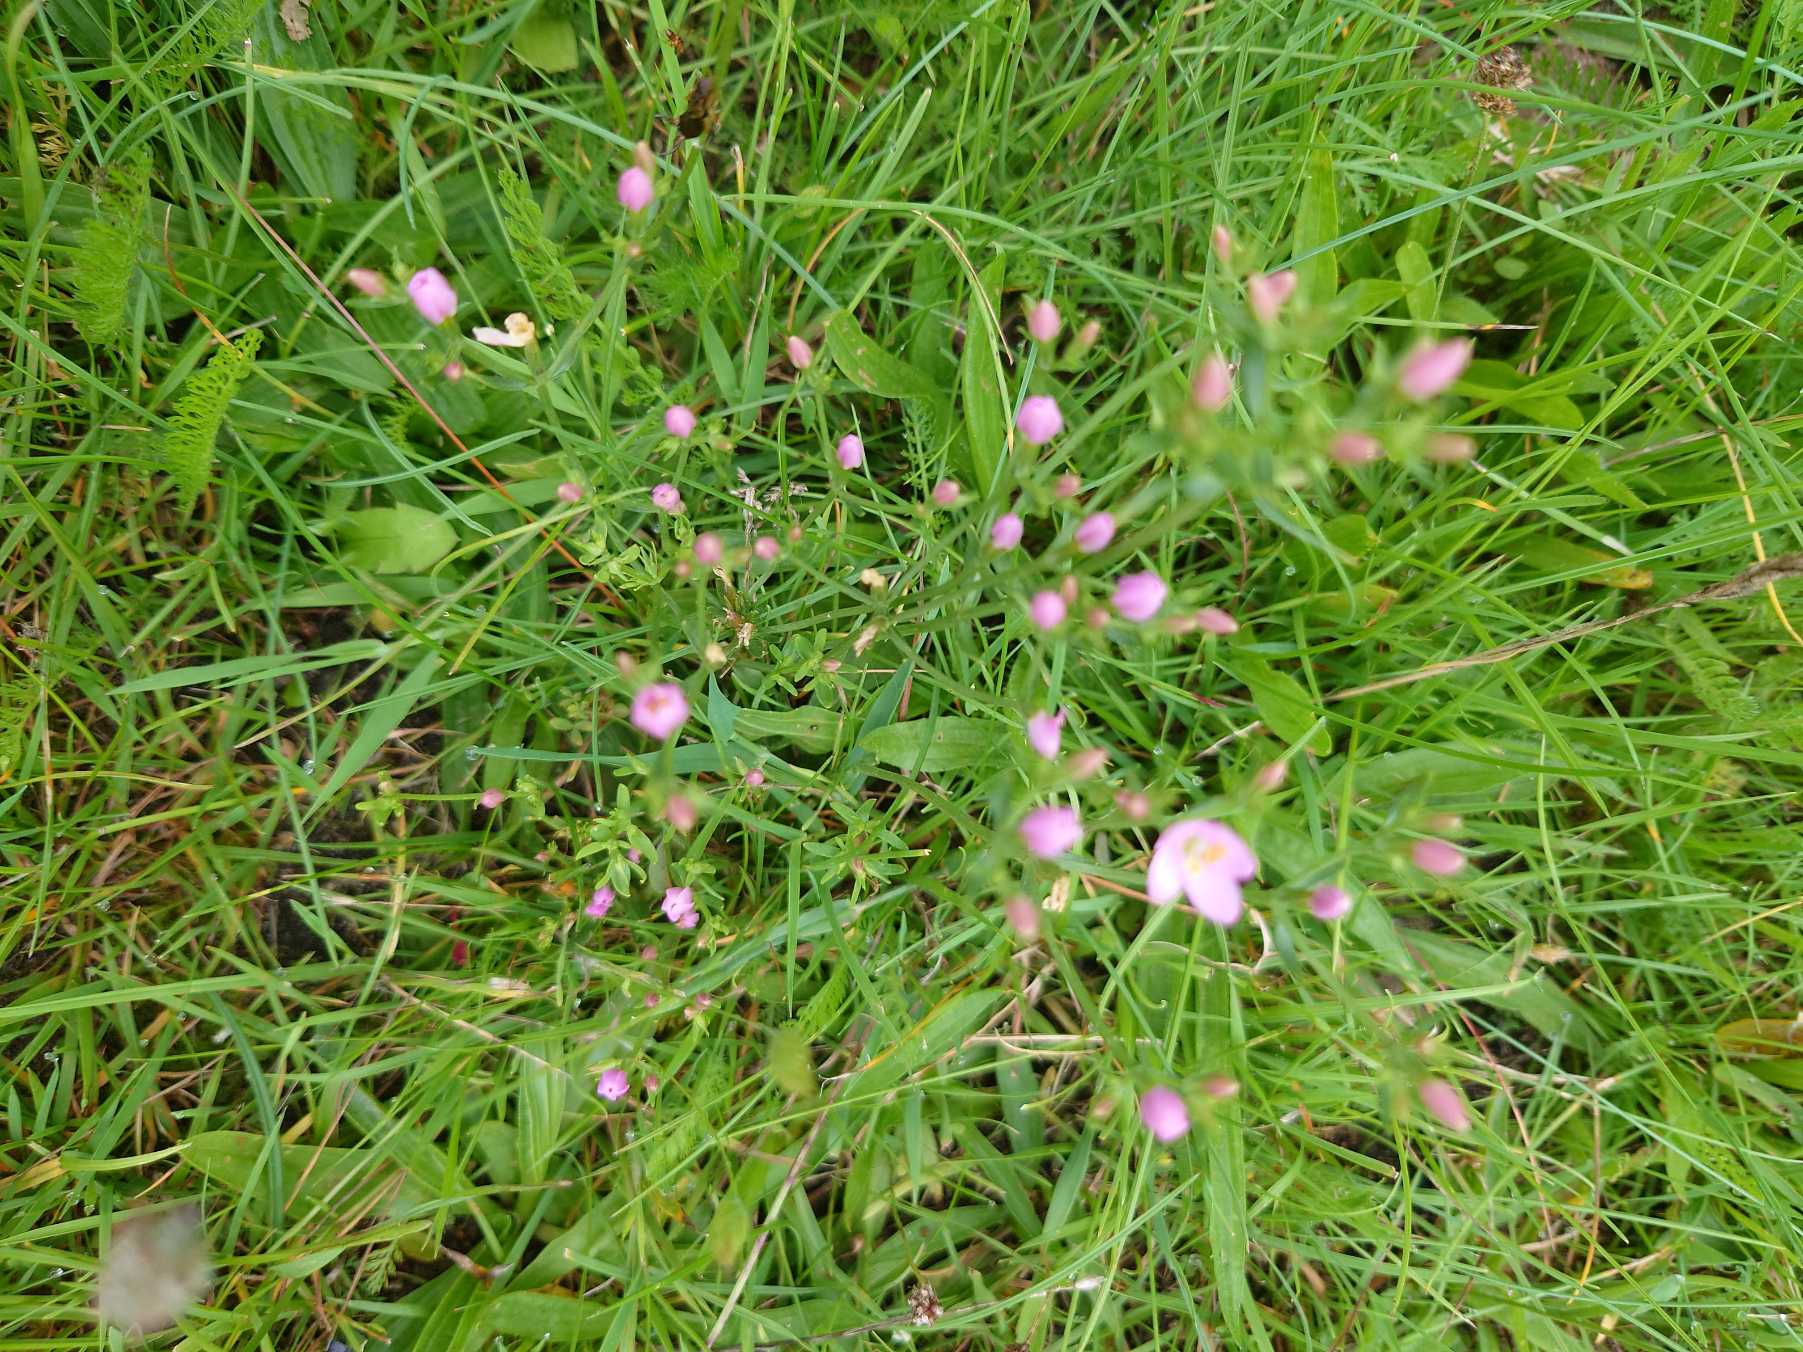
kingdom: Plantae
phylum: Tracheophyta
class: Magnoliopsida
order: Gentianales
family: Gentianaceae
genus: Centaurium
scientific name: Centaurium erythraea
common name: Mark-tusindgylden
